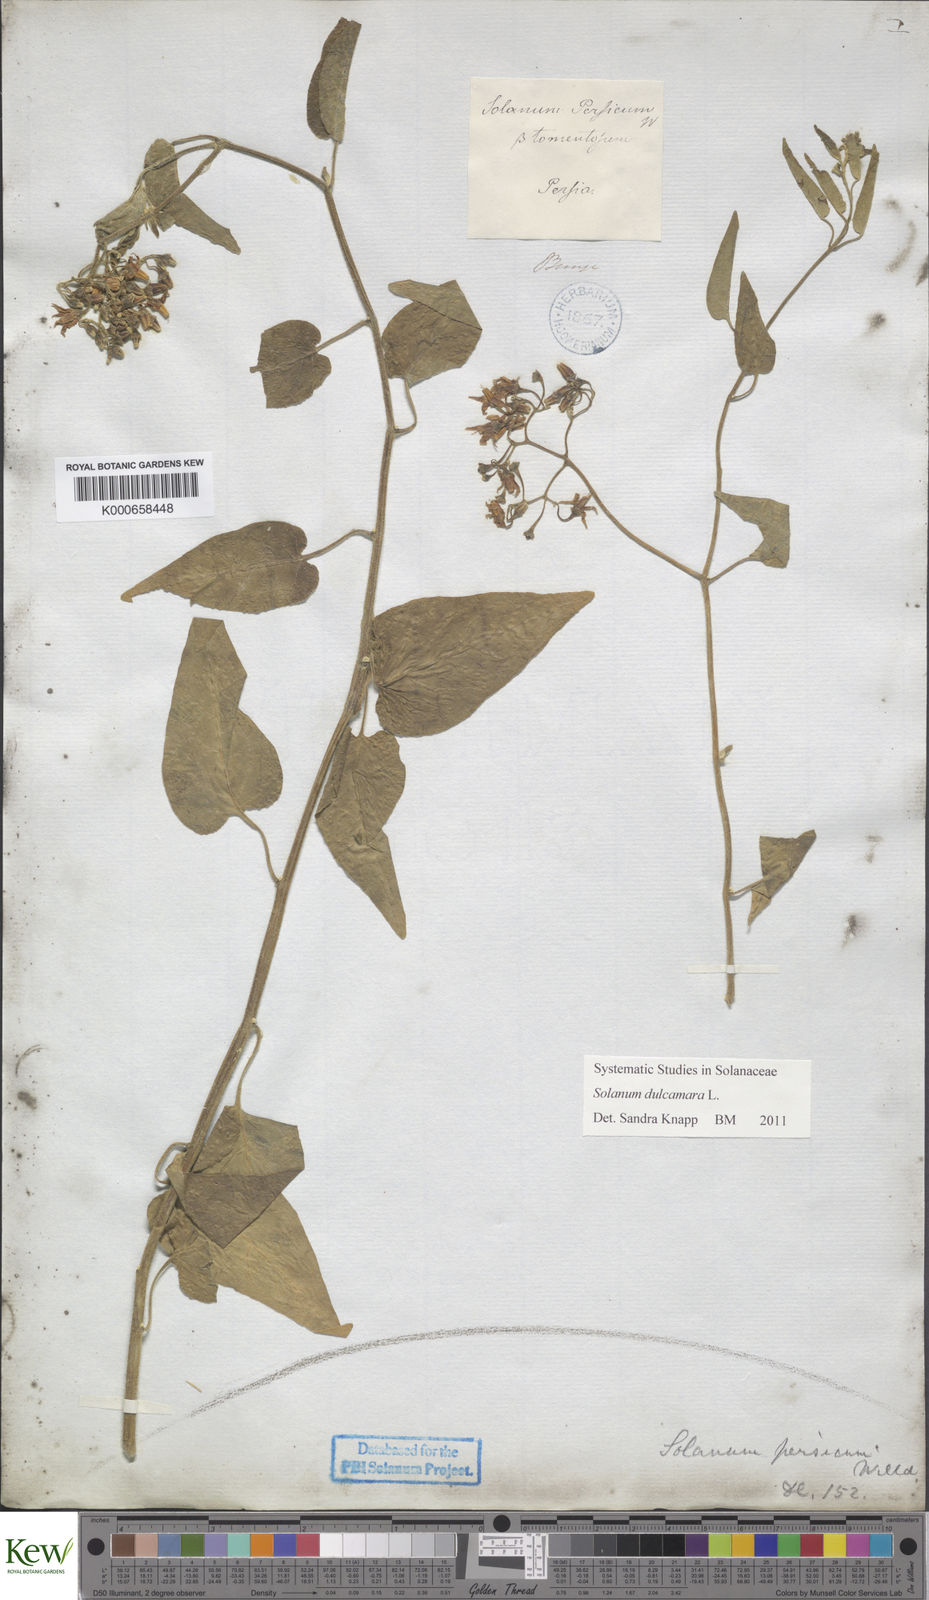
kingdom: Plantae
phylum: Tracheophyta
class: Magnoliopsida
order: Solanales
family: Solanaceae
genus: Solanum
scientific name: Solanum dulcamara
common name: Climbing nightshade
